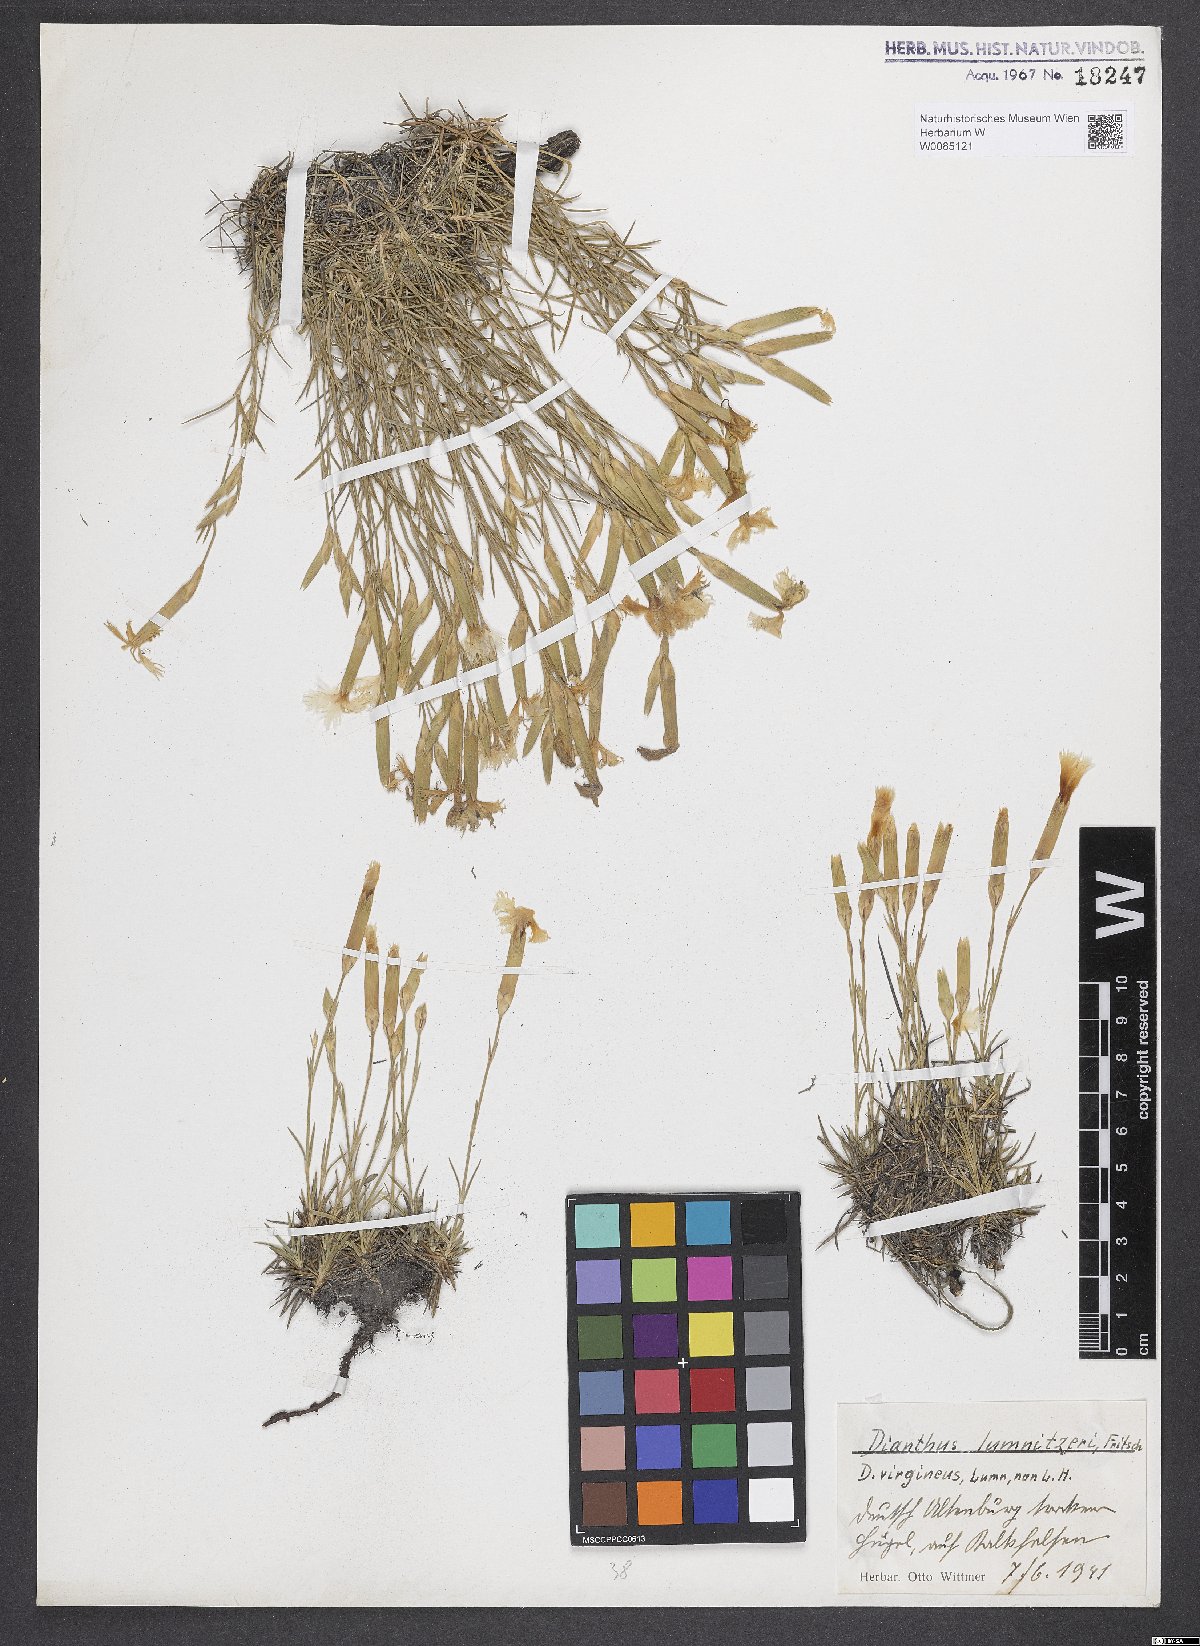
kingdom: Plantae
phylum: Tracheophyta
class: Magnoliopsida
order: Caryophyllales
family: Caryophyllaceae
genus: Dianthus
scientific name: Dianthus praecox
